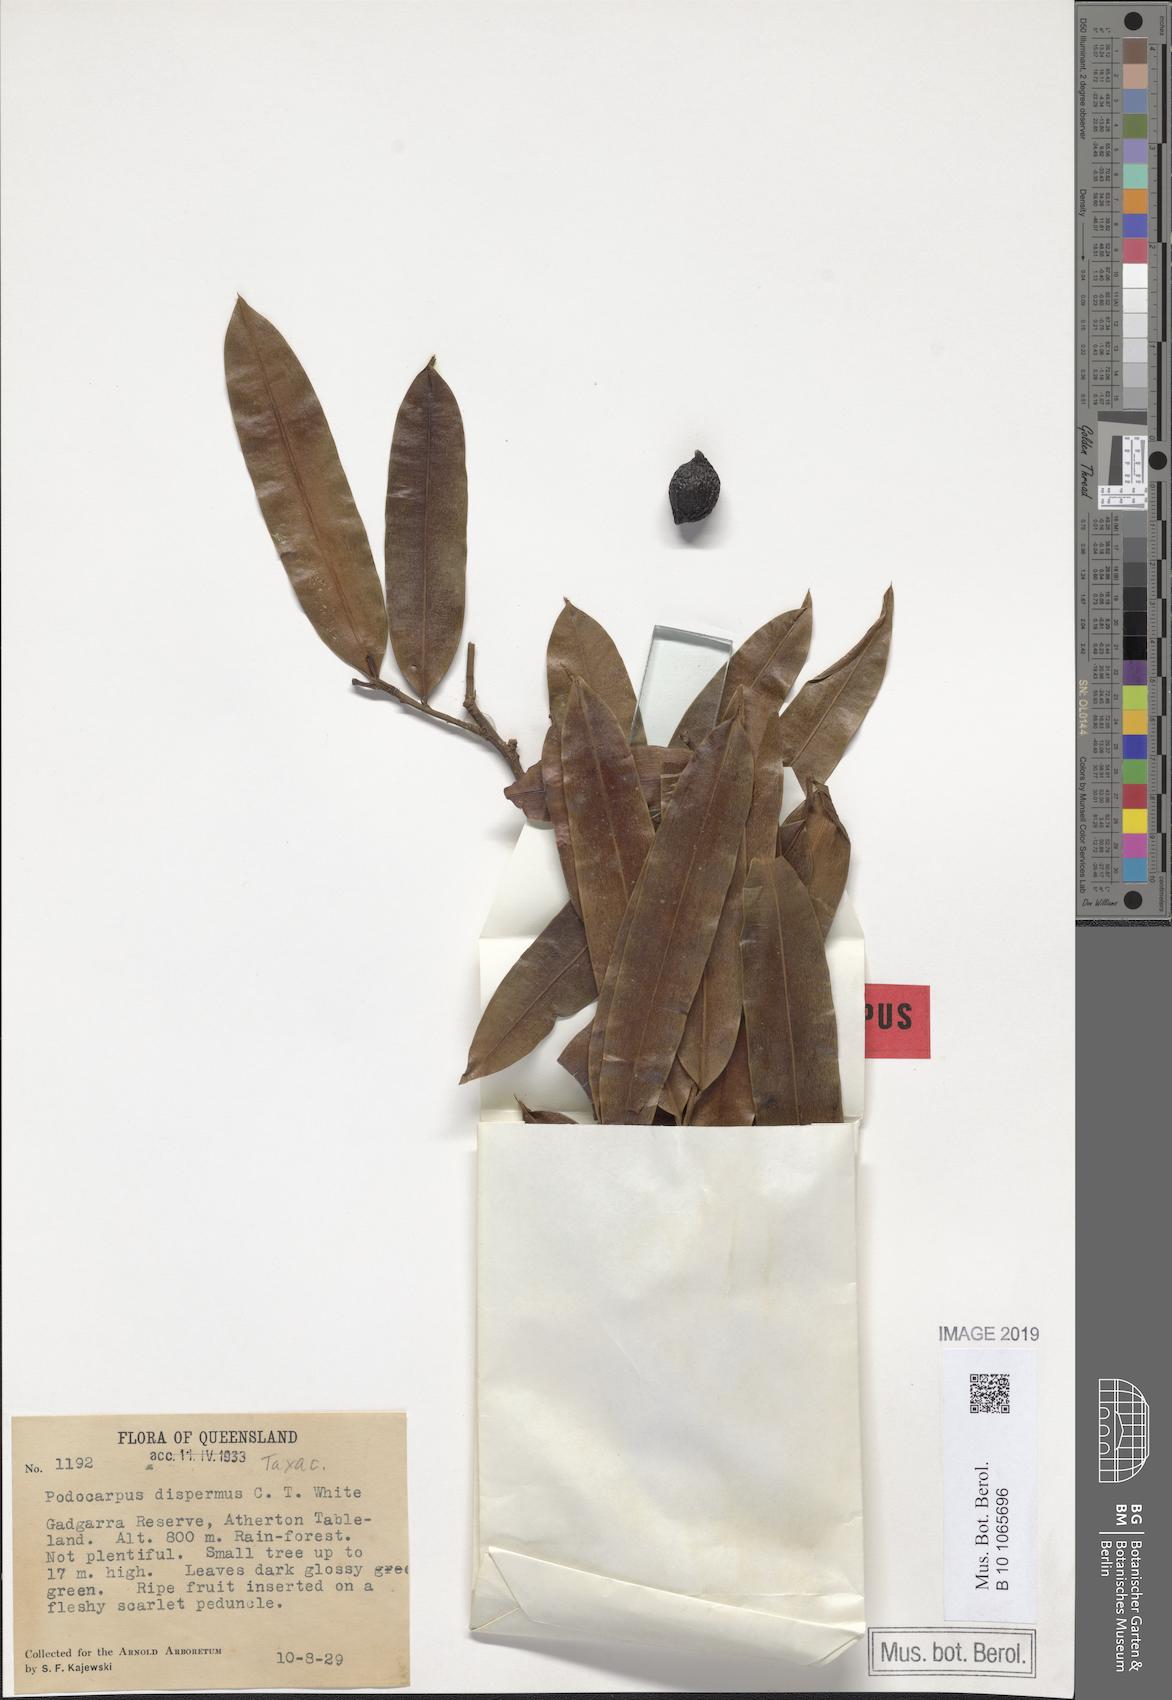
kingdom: Plantae
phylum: Tracheophyta
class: Pinopsida
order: Pinales
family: Podocarpaceae
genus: Podocarpus
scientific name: Podocarpus dispermus
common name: Broad-leaved brown pine
